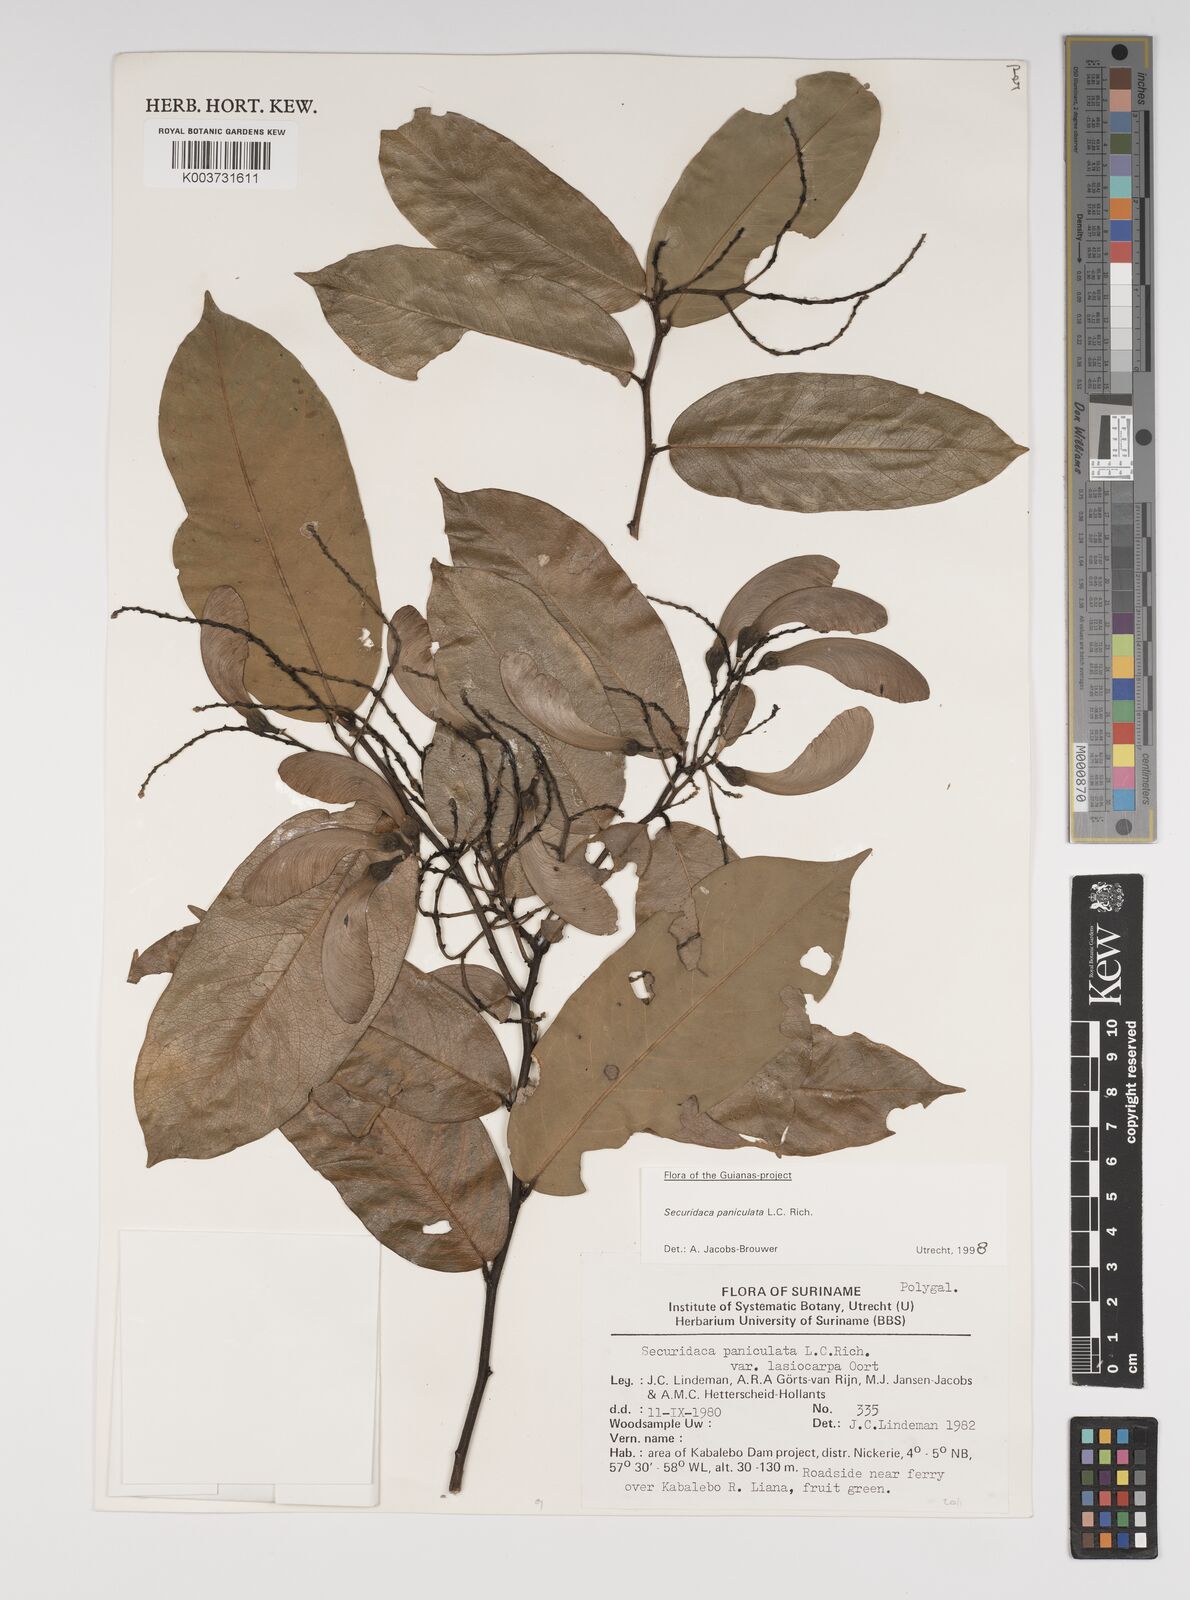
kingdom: Plantae
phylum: Tracheophyta
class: Magnoliopsida
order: Fabales
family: Polygalaceae
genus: Securidaca
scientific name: Securidaca paniculata
